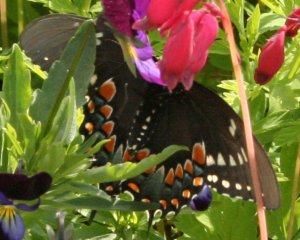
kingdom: Animalia
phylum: Arthropoda
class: Insecta
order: Lepidoptera
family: Papilionidae
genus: Pterourus
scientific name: Pterourus troilus
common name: Spicebush Swallowtail
